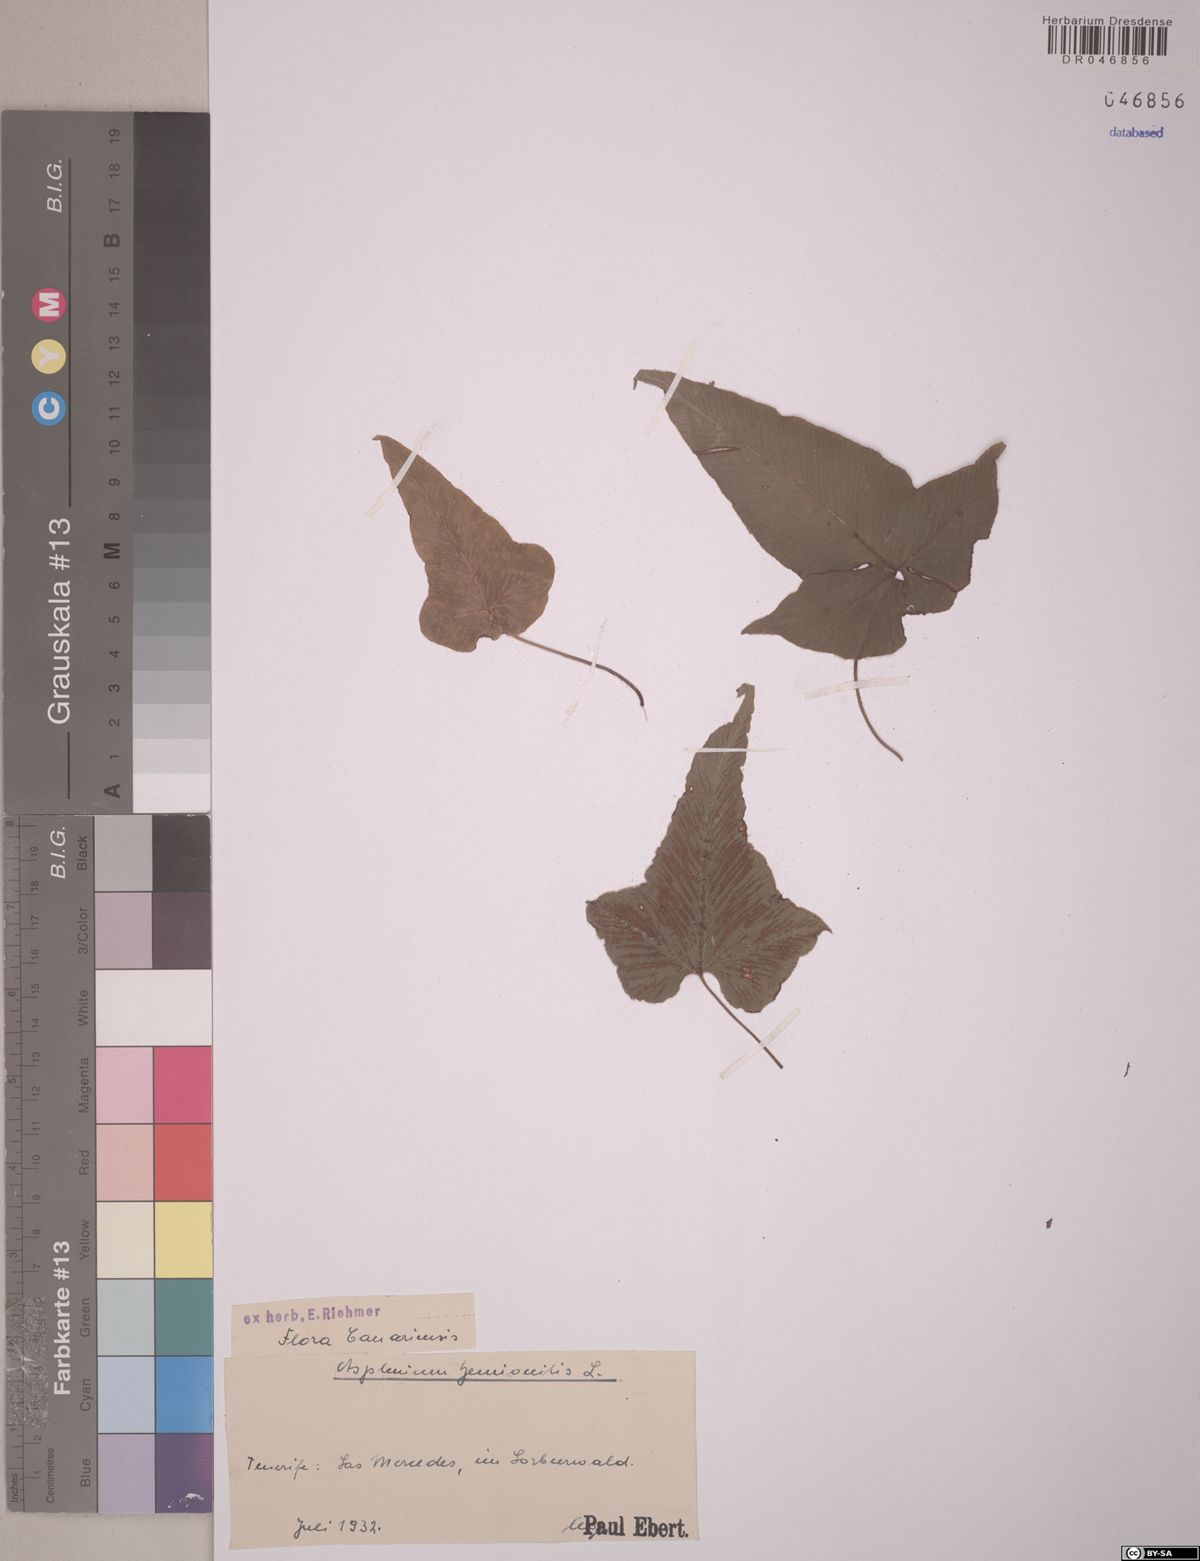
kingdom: Plantae
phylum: Tracheophyta
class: Polypodiopsida
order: Polypodiales
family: Aspleniaceae
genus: Asplenium
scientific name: Asplenium hemionitis
